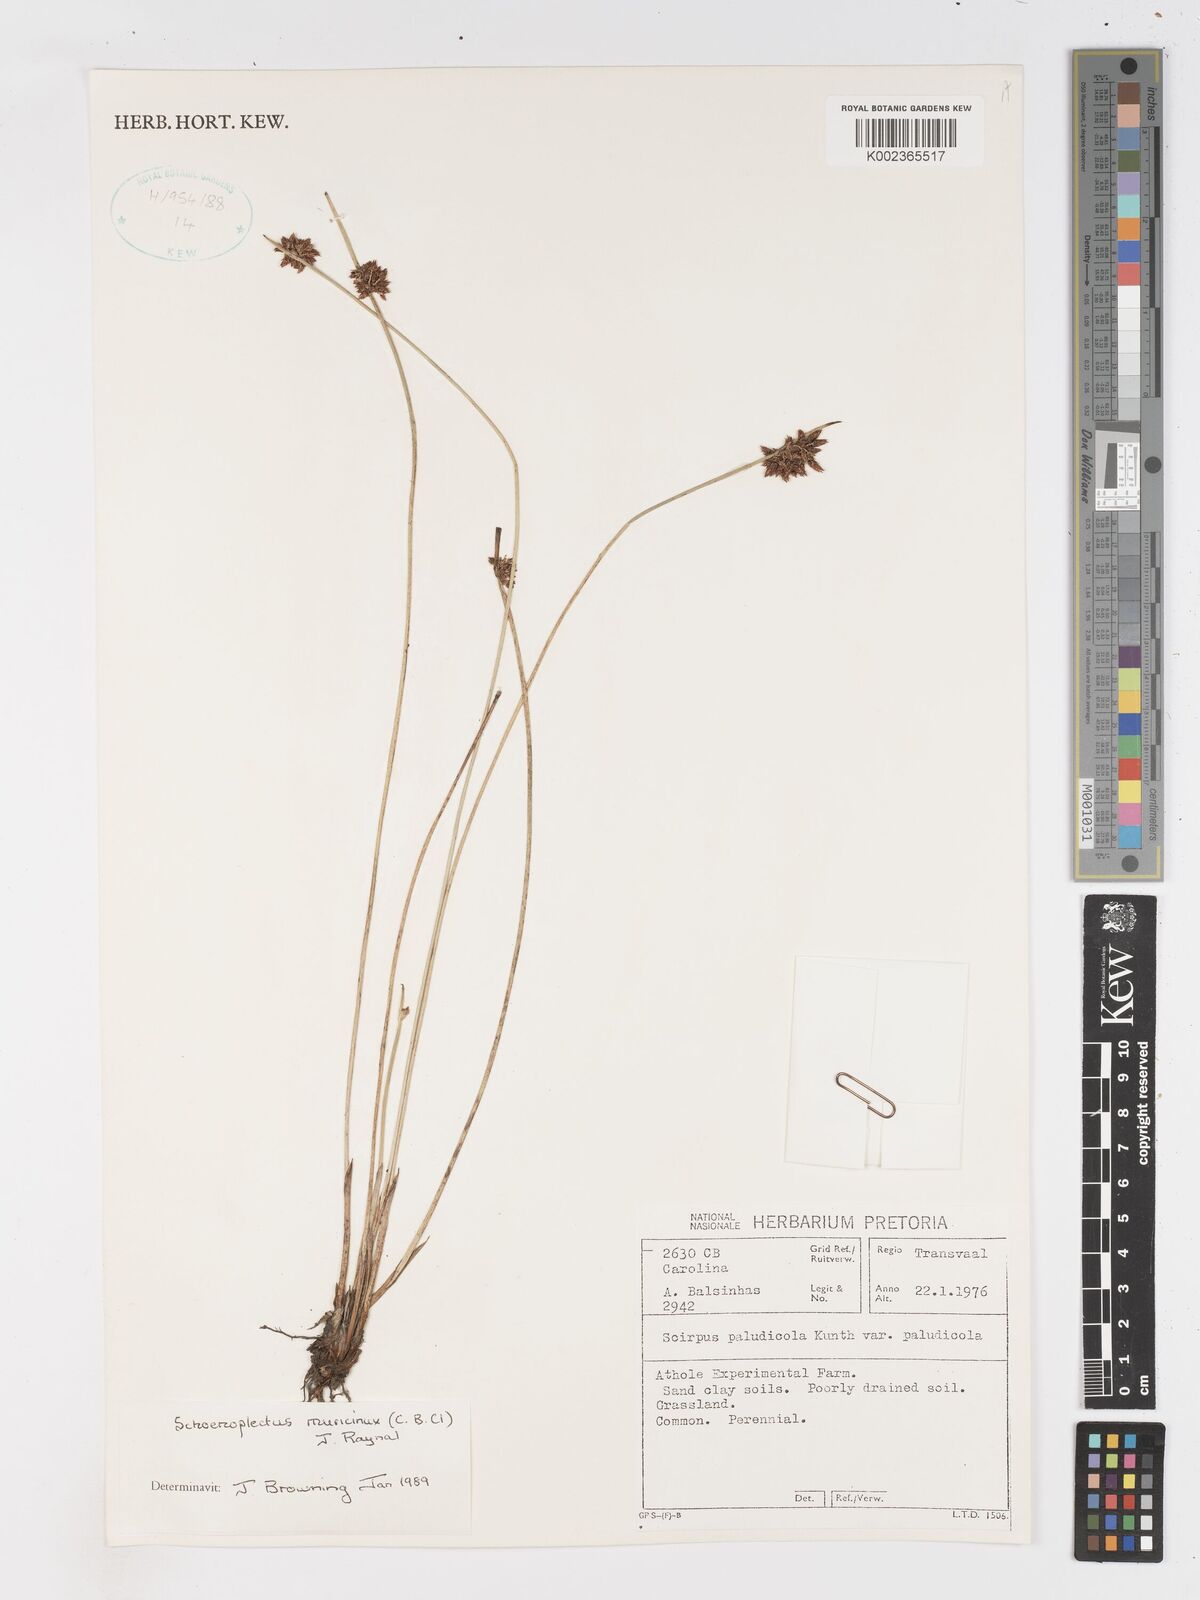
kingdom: Plantae
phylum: Tracheophyta
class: Liliopsida
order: Poales
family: Cyperaceae
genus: Schoenoplectiella
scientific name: Schoenoplectiella muricinux
